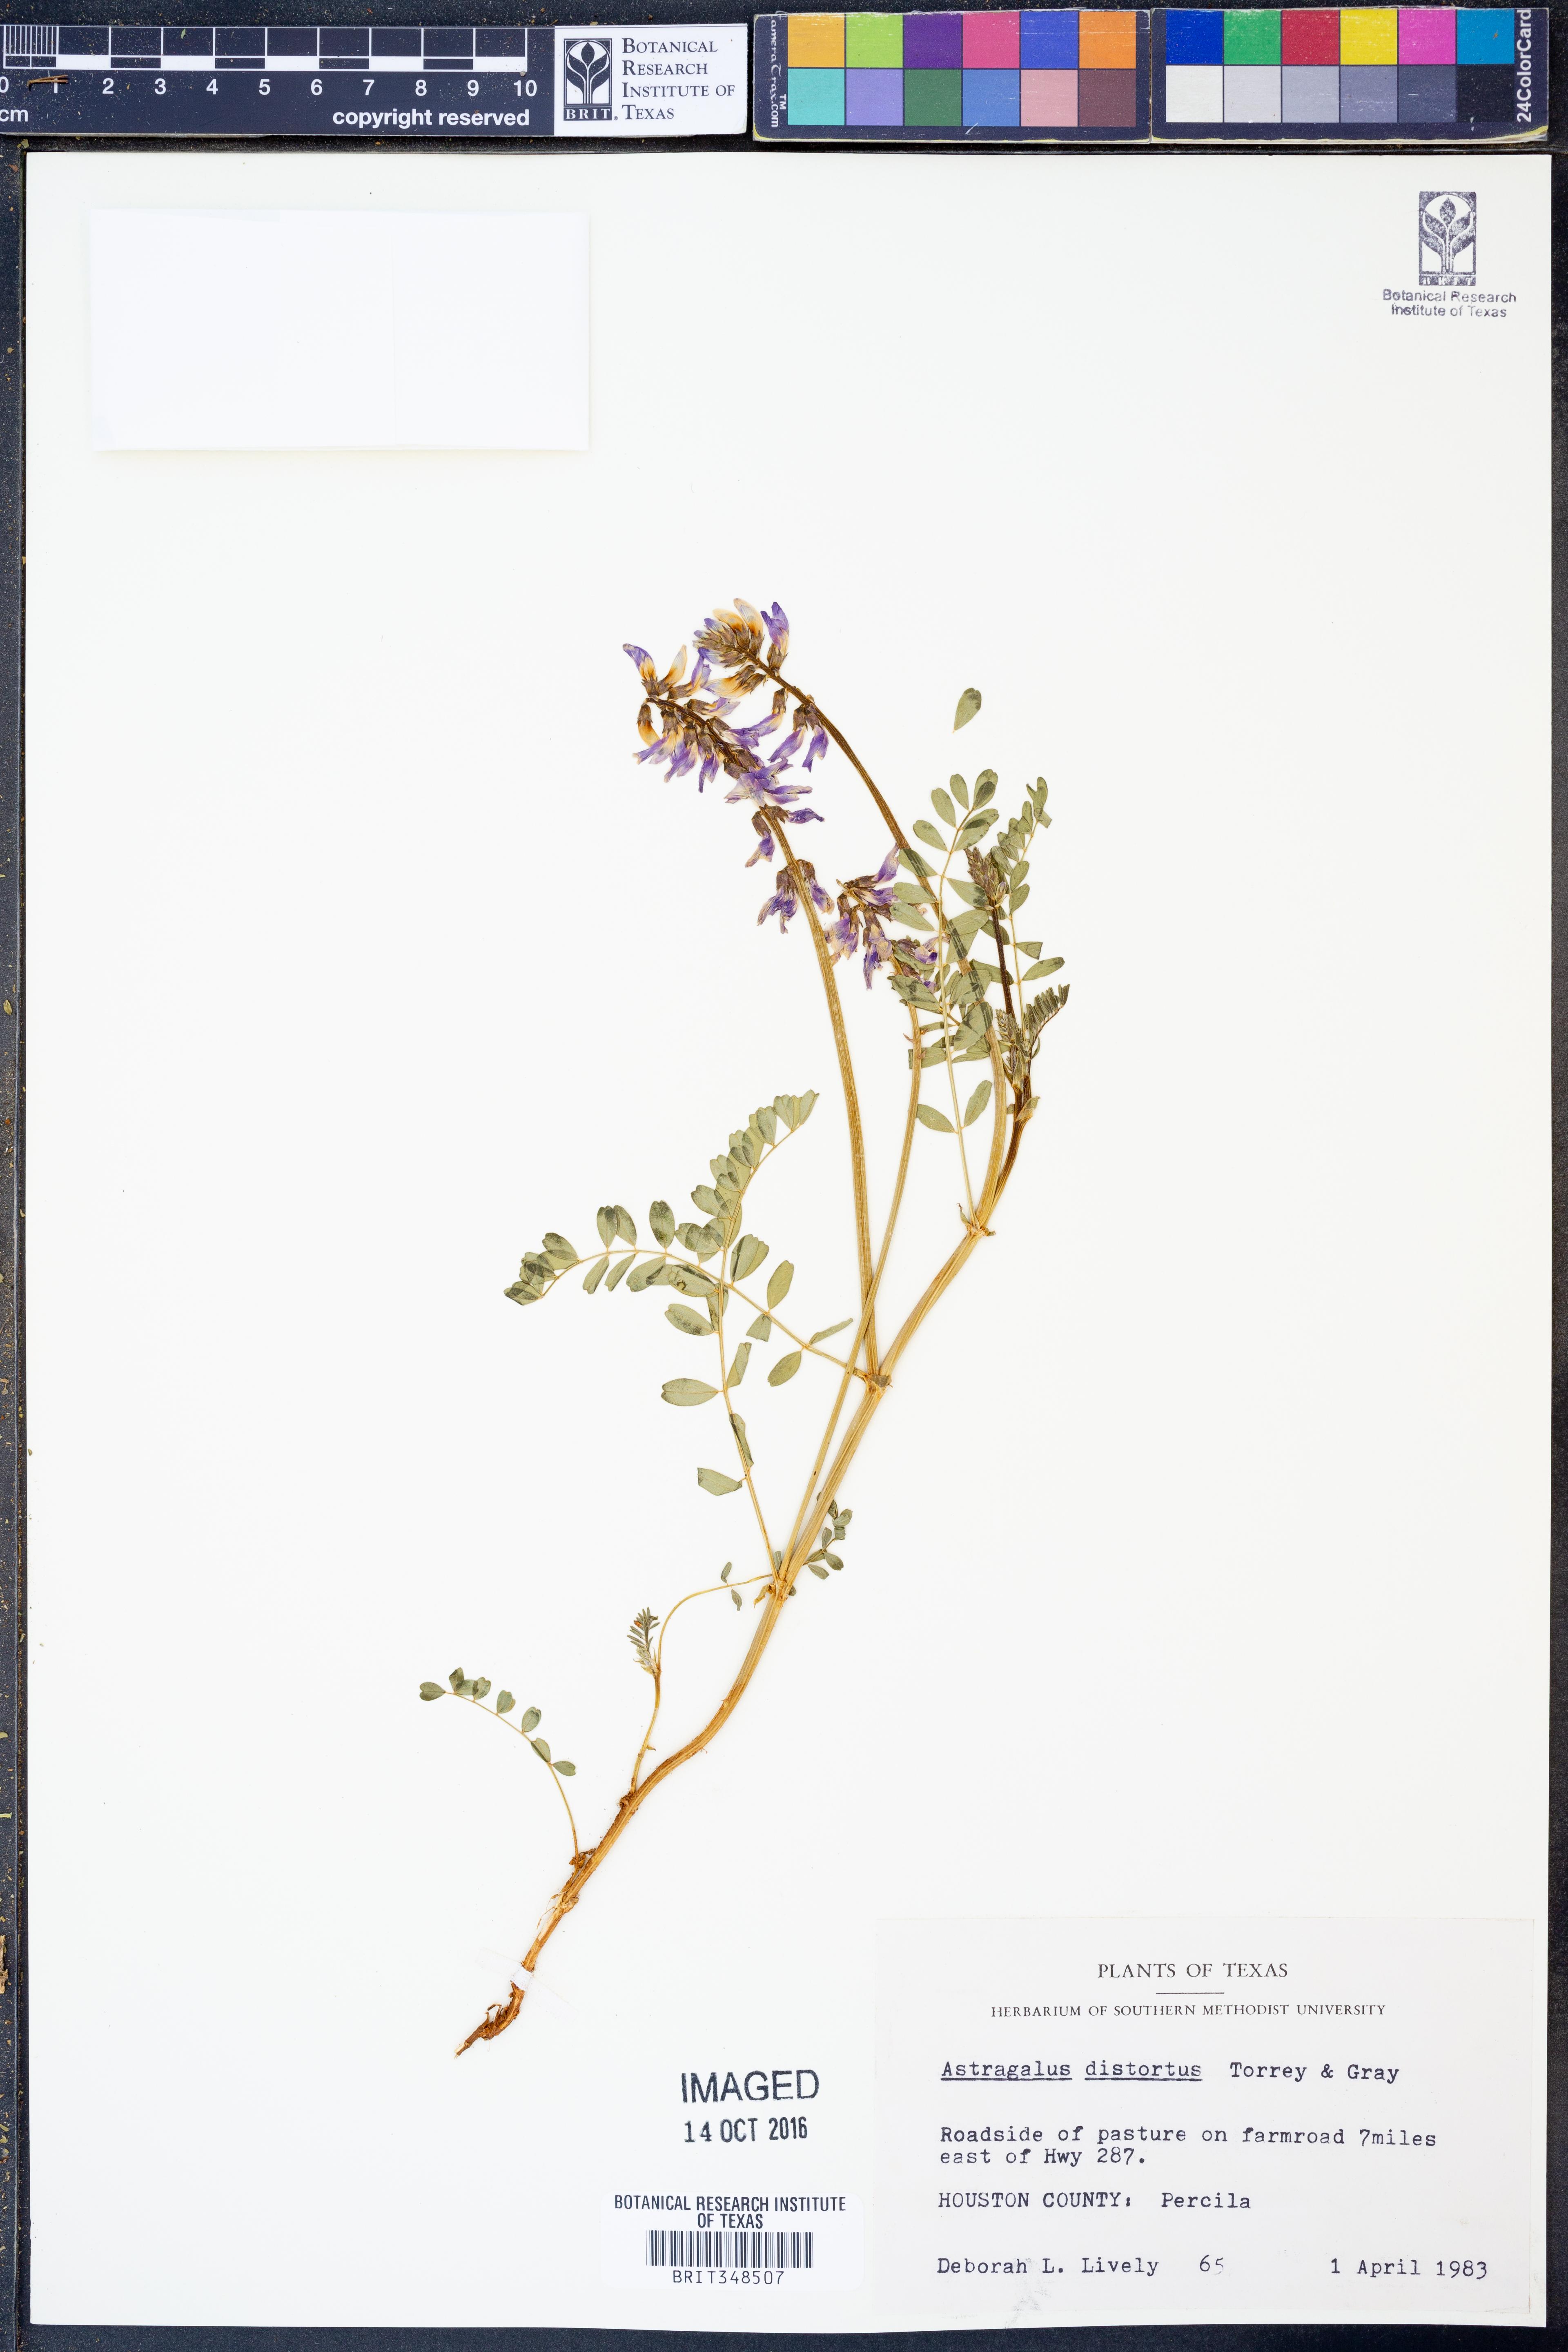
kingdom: Plantae
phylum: Tracheophyta
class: Magnoliopsida
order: Fabales
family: Fabaceae
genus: Astragalus
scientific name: Astragalus distortus
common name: Ozark milk-vetch
